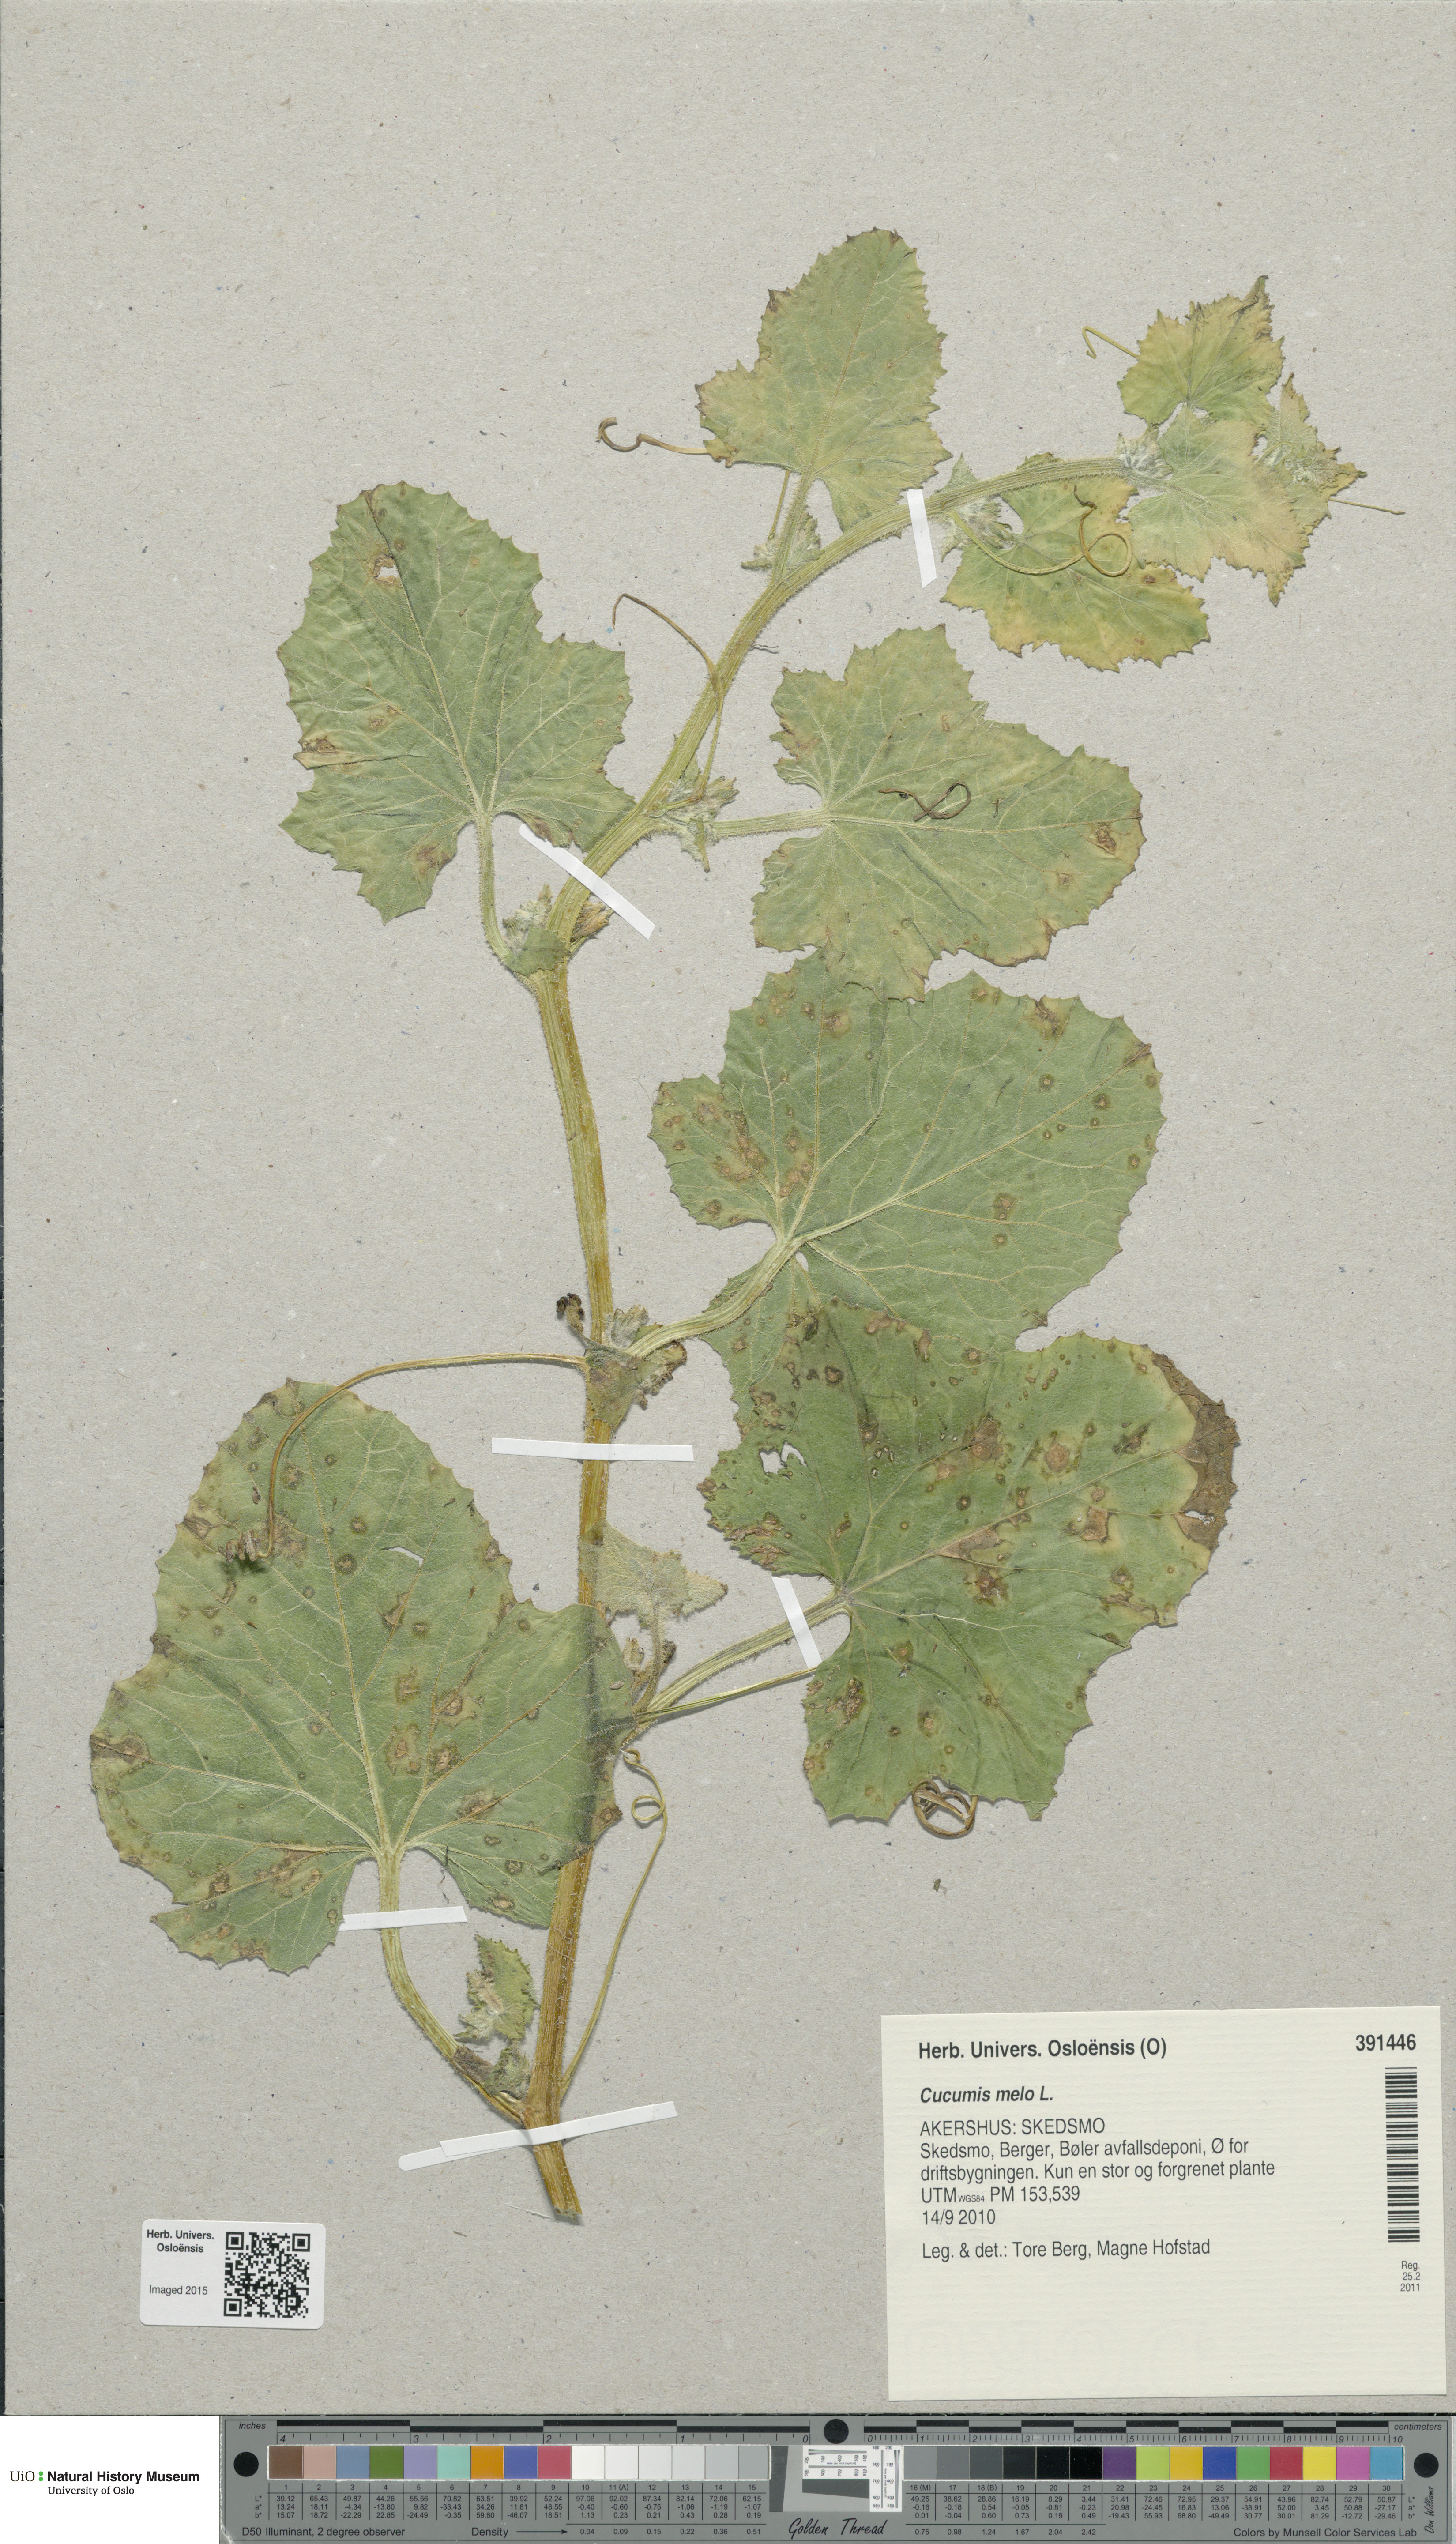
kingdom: Plantae
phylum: Tracheophyta
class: Magnoliopsida
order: Cucurbitales
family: Cucurbitaceae
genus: Cucumis
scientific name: Cucumis melo
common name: Melon
